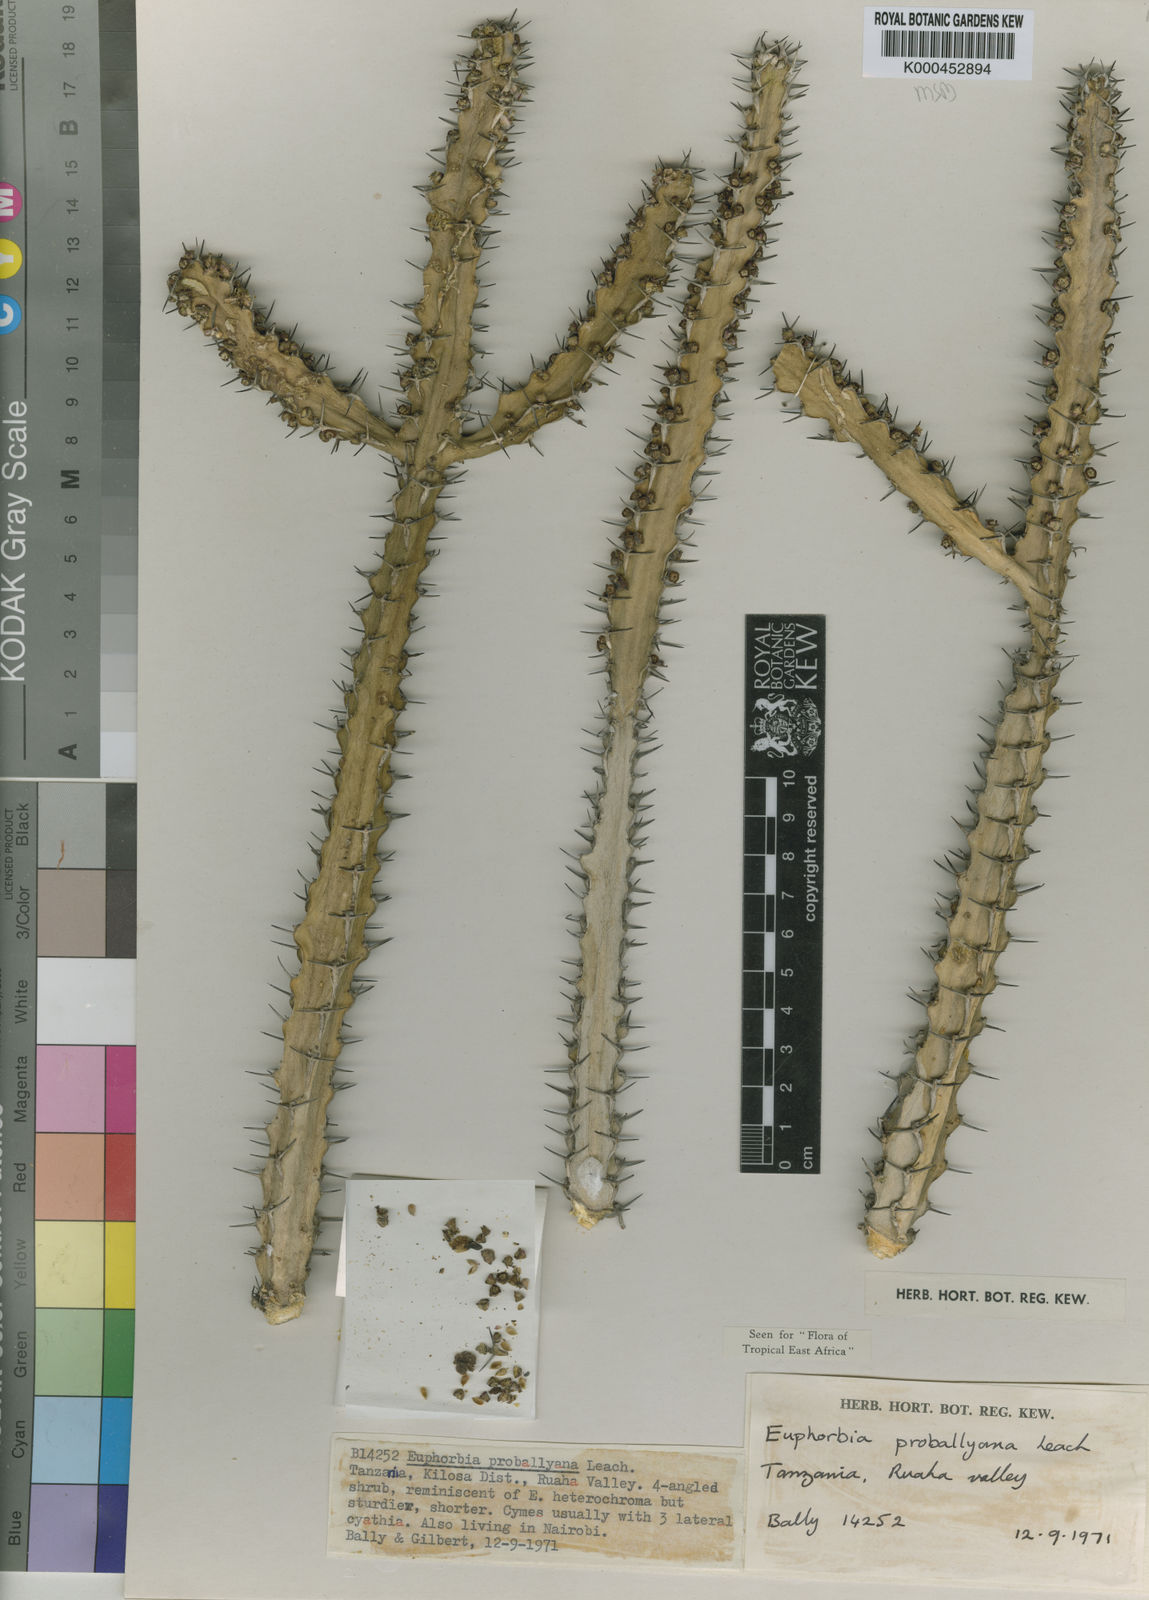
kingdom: Plantae
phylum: Tracheophyta
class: Magnoliopsida
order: Malpighiales
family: Euphorbiaceae
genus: Euphorbia
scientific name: Euphorbia
